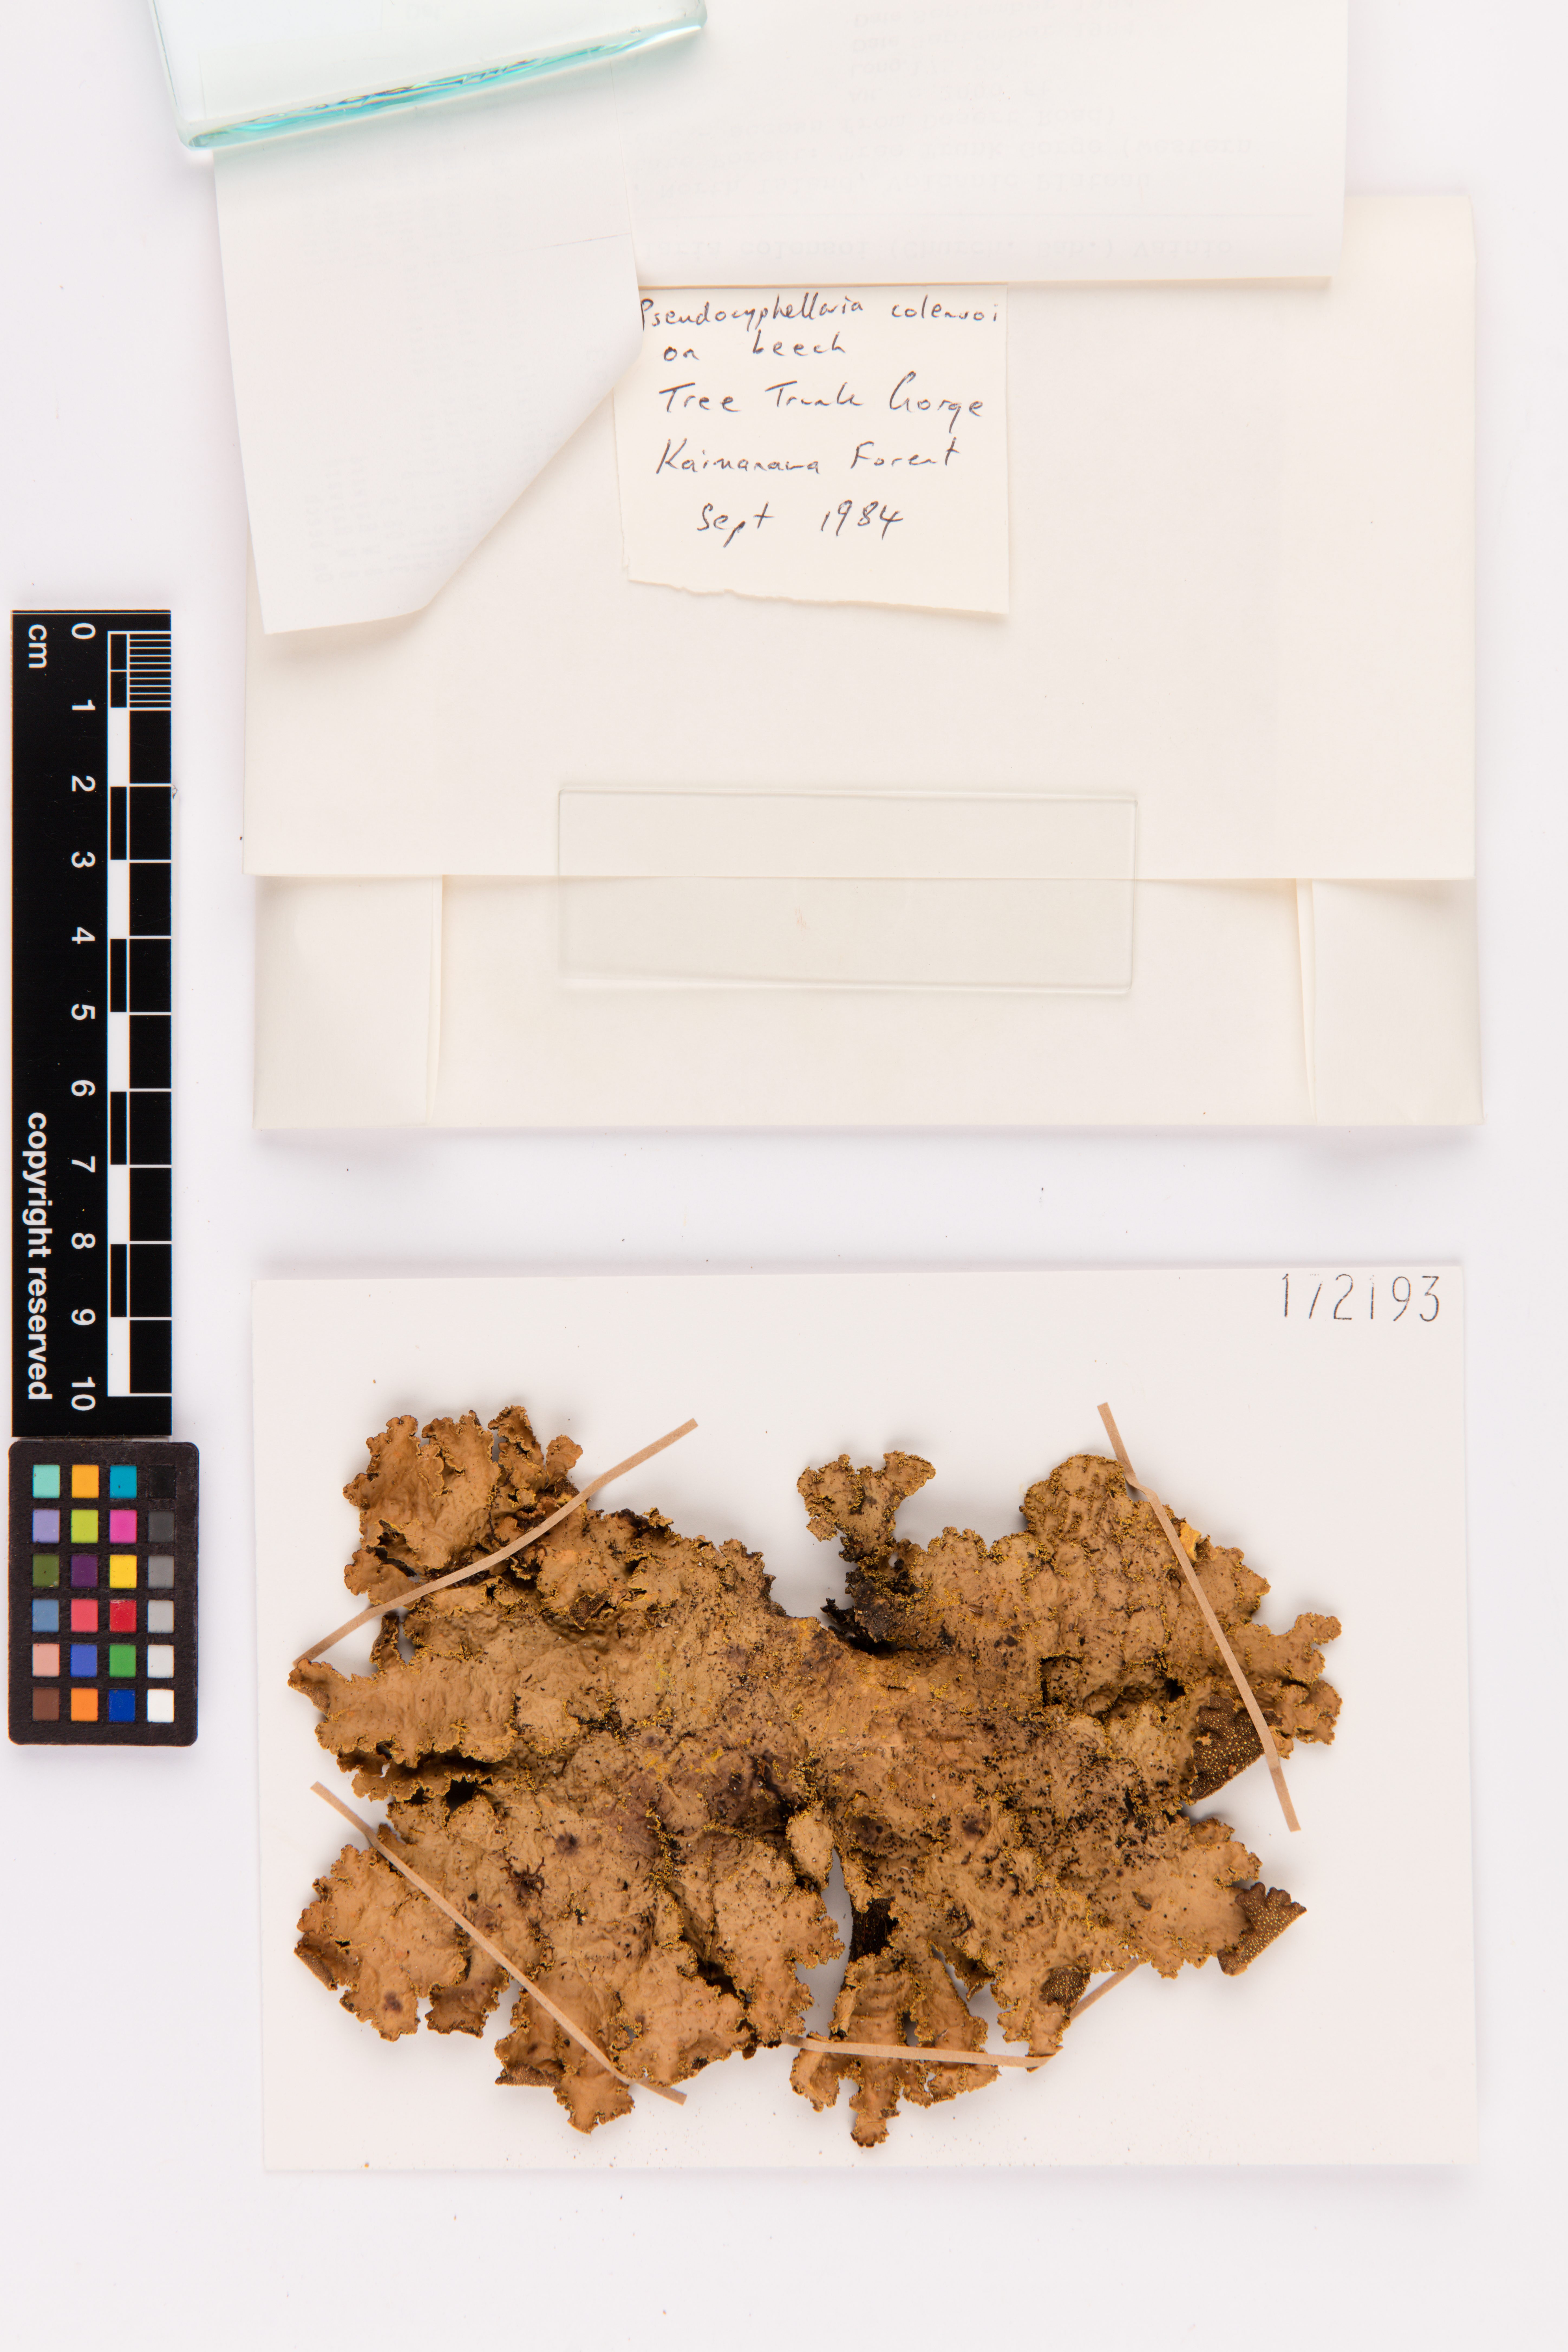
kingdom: Fungi
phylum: Ascomycota
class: Lecanoromycetes
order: Peltigerales
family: Lobariaceae
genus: Yarrumia
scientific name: Yarrumia colensoi
